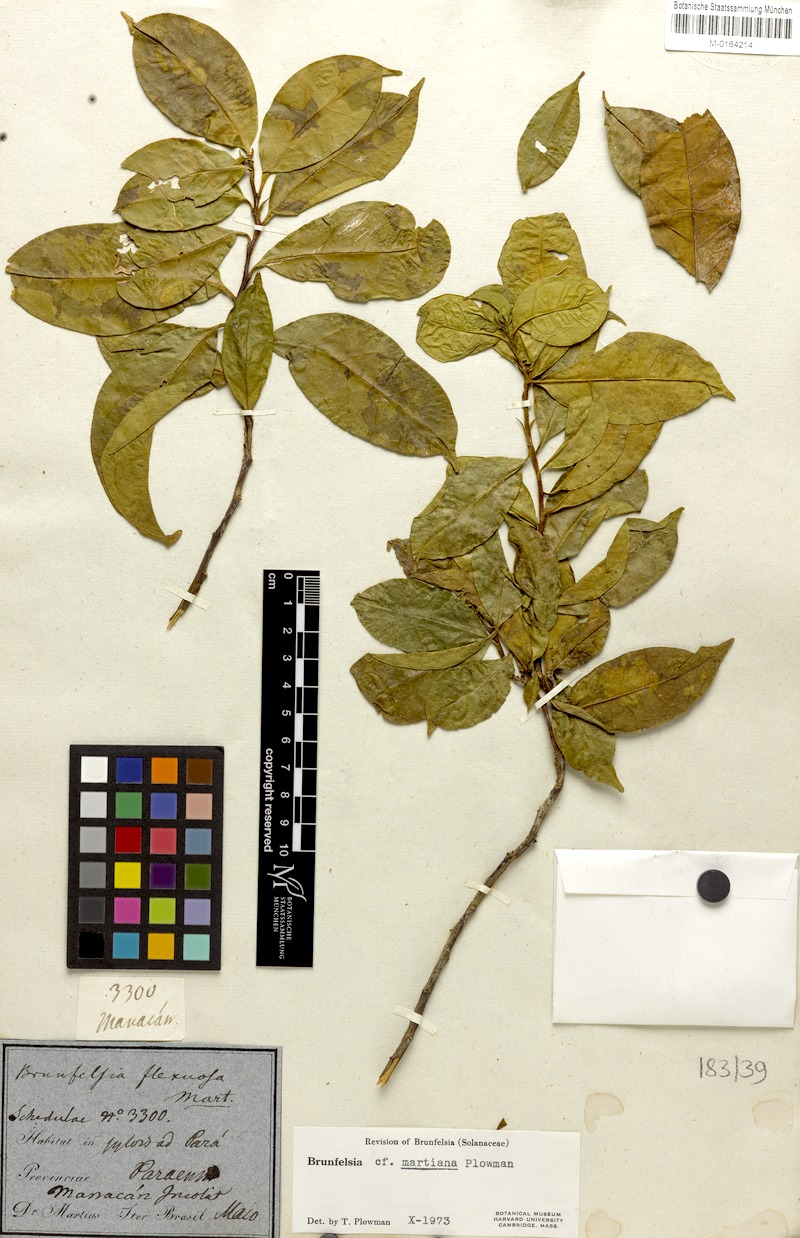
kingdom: Plantae
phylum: Tracheophyta
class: Magnoliopsida
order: Solanales
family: Solanaceae
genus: Brunfelsia
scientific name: Brunfelsia martiana
